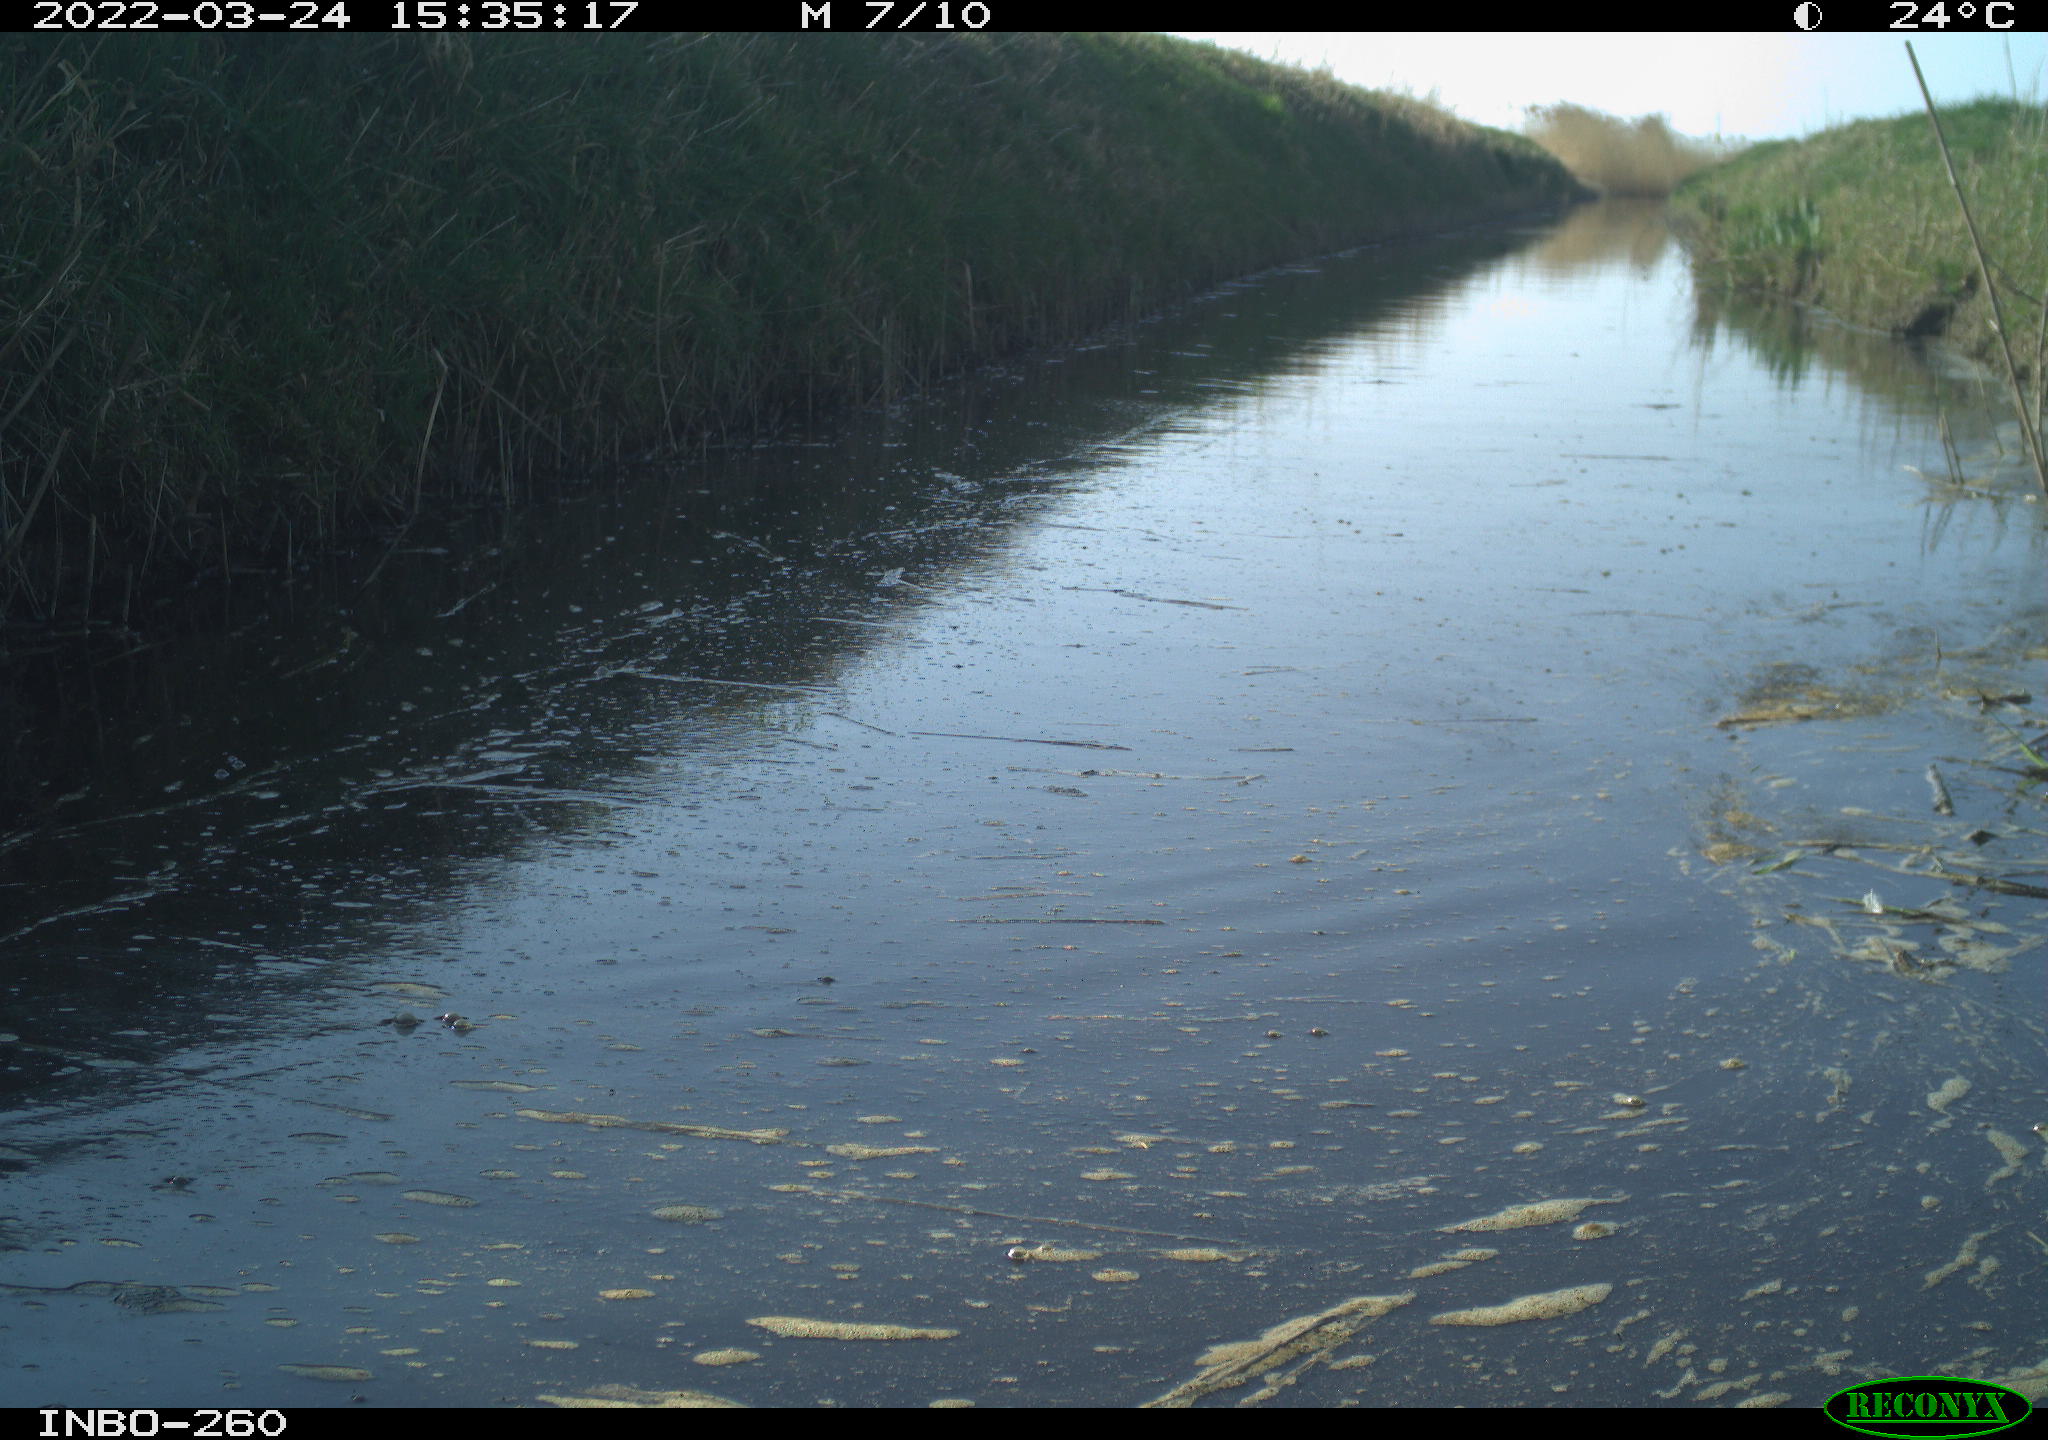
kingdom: Animalia
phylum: Chordata
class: Aves
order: Gruiformes
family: Rallidae
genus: Fulica
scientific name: Fulica atra
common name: Eurasian coot
